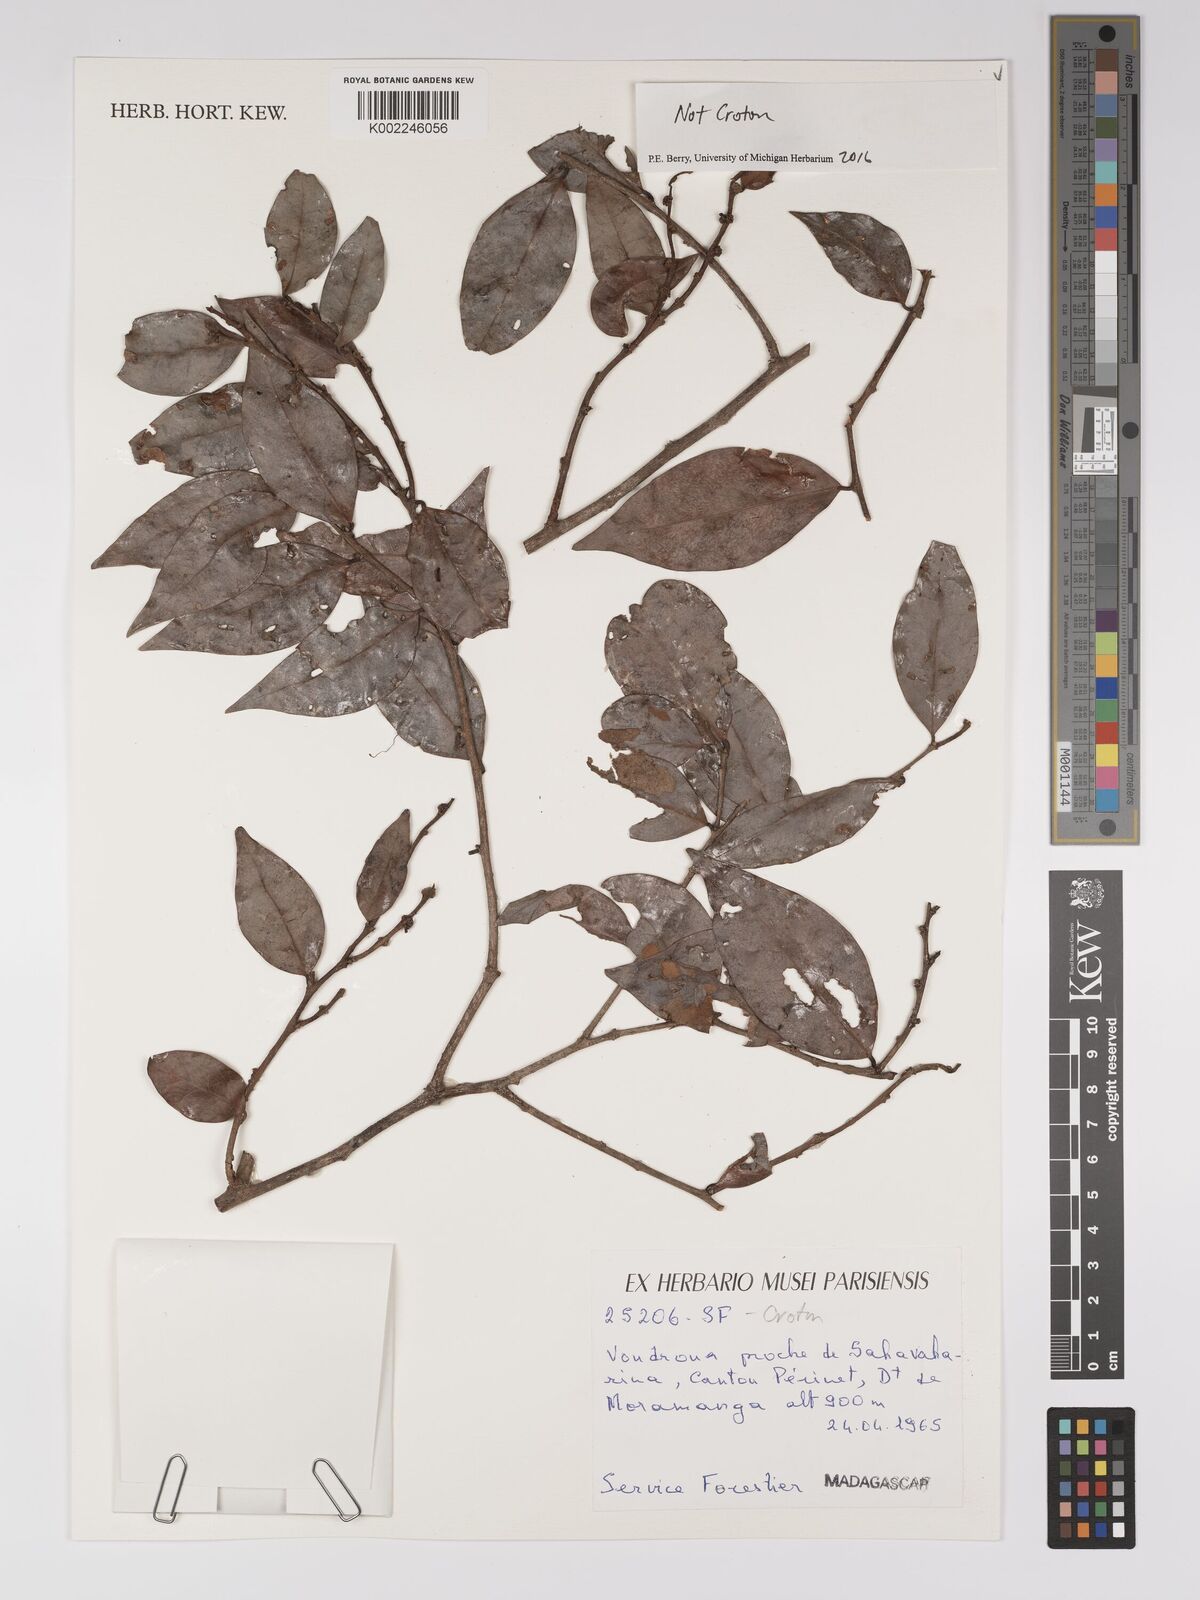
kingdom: Plantae
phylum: Tracheophyta
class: Magnoliopsida
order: Malpighiales
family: Euphorbiaceae
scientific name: Euphorbiaceae
